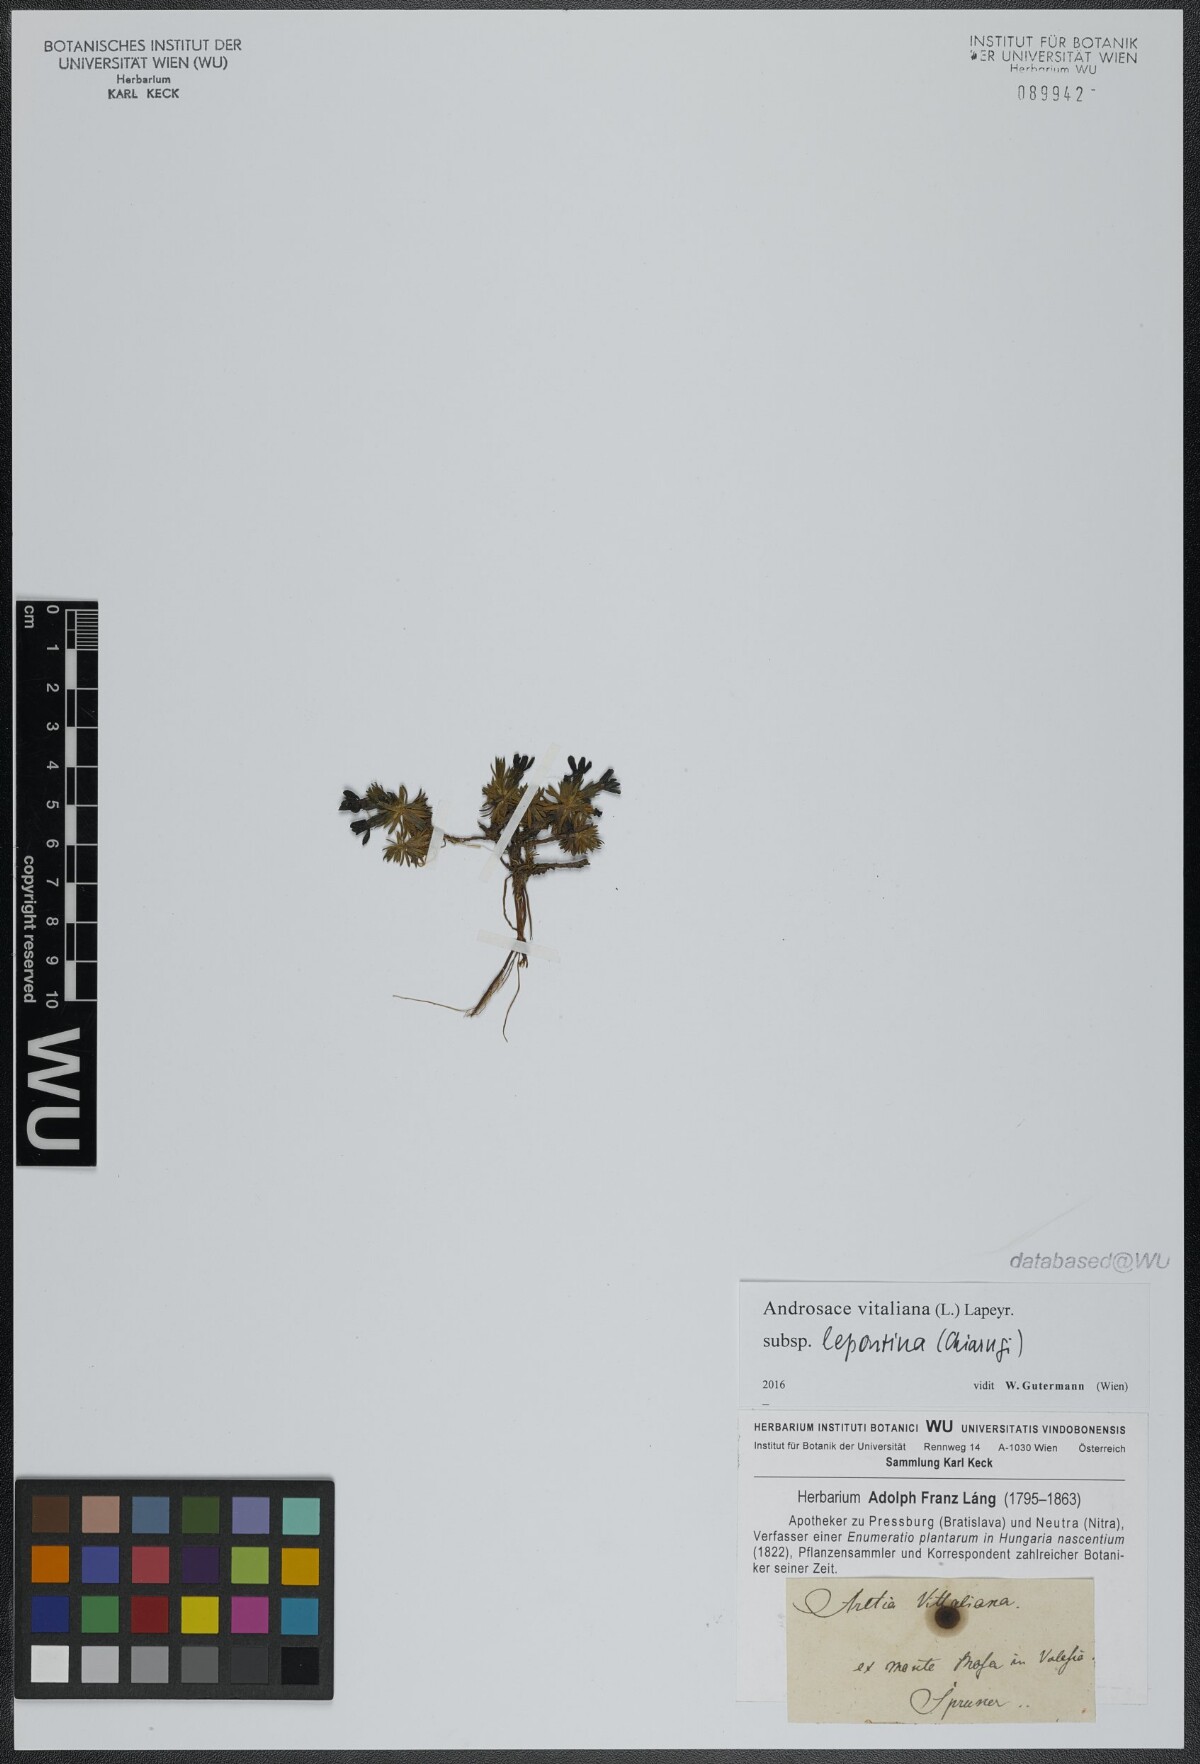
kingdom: Plantae
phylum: Tracheophyta
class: Magnoliopsida
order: Ericales
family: Primulaceae
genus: Androsace
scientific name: Androsace vitaliana
